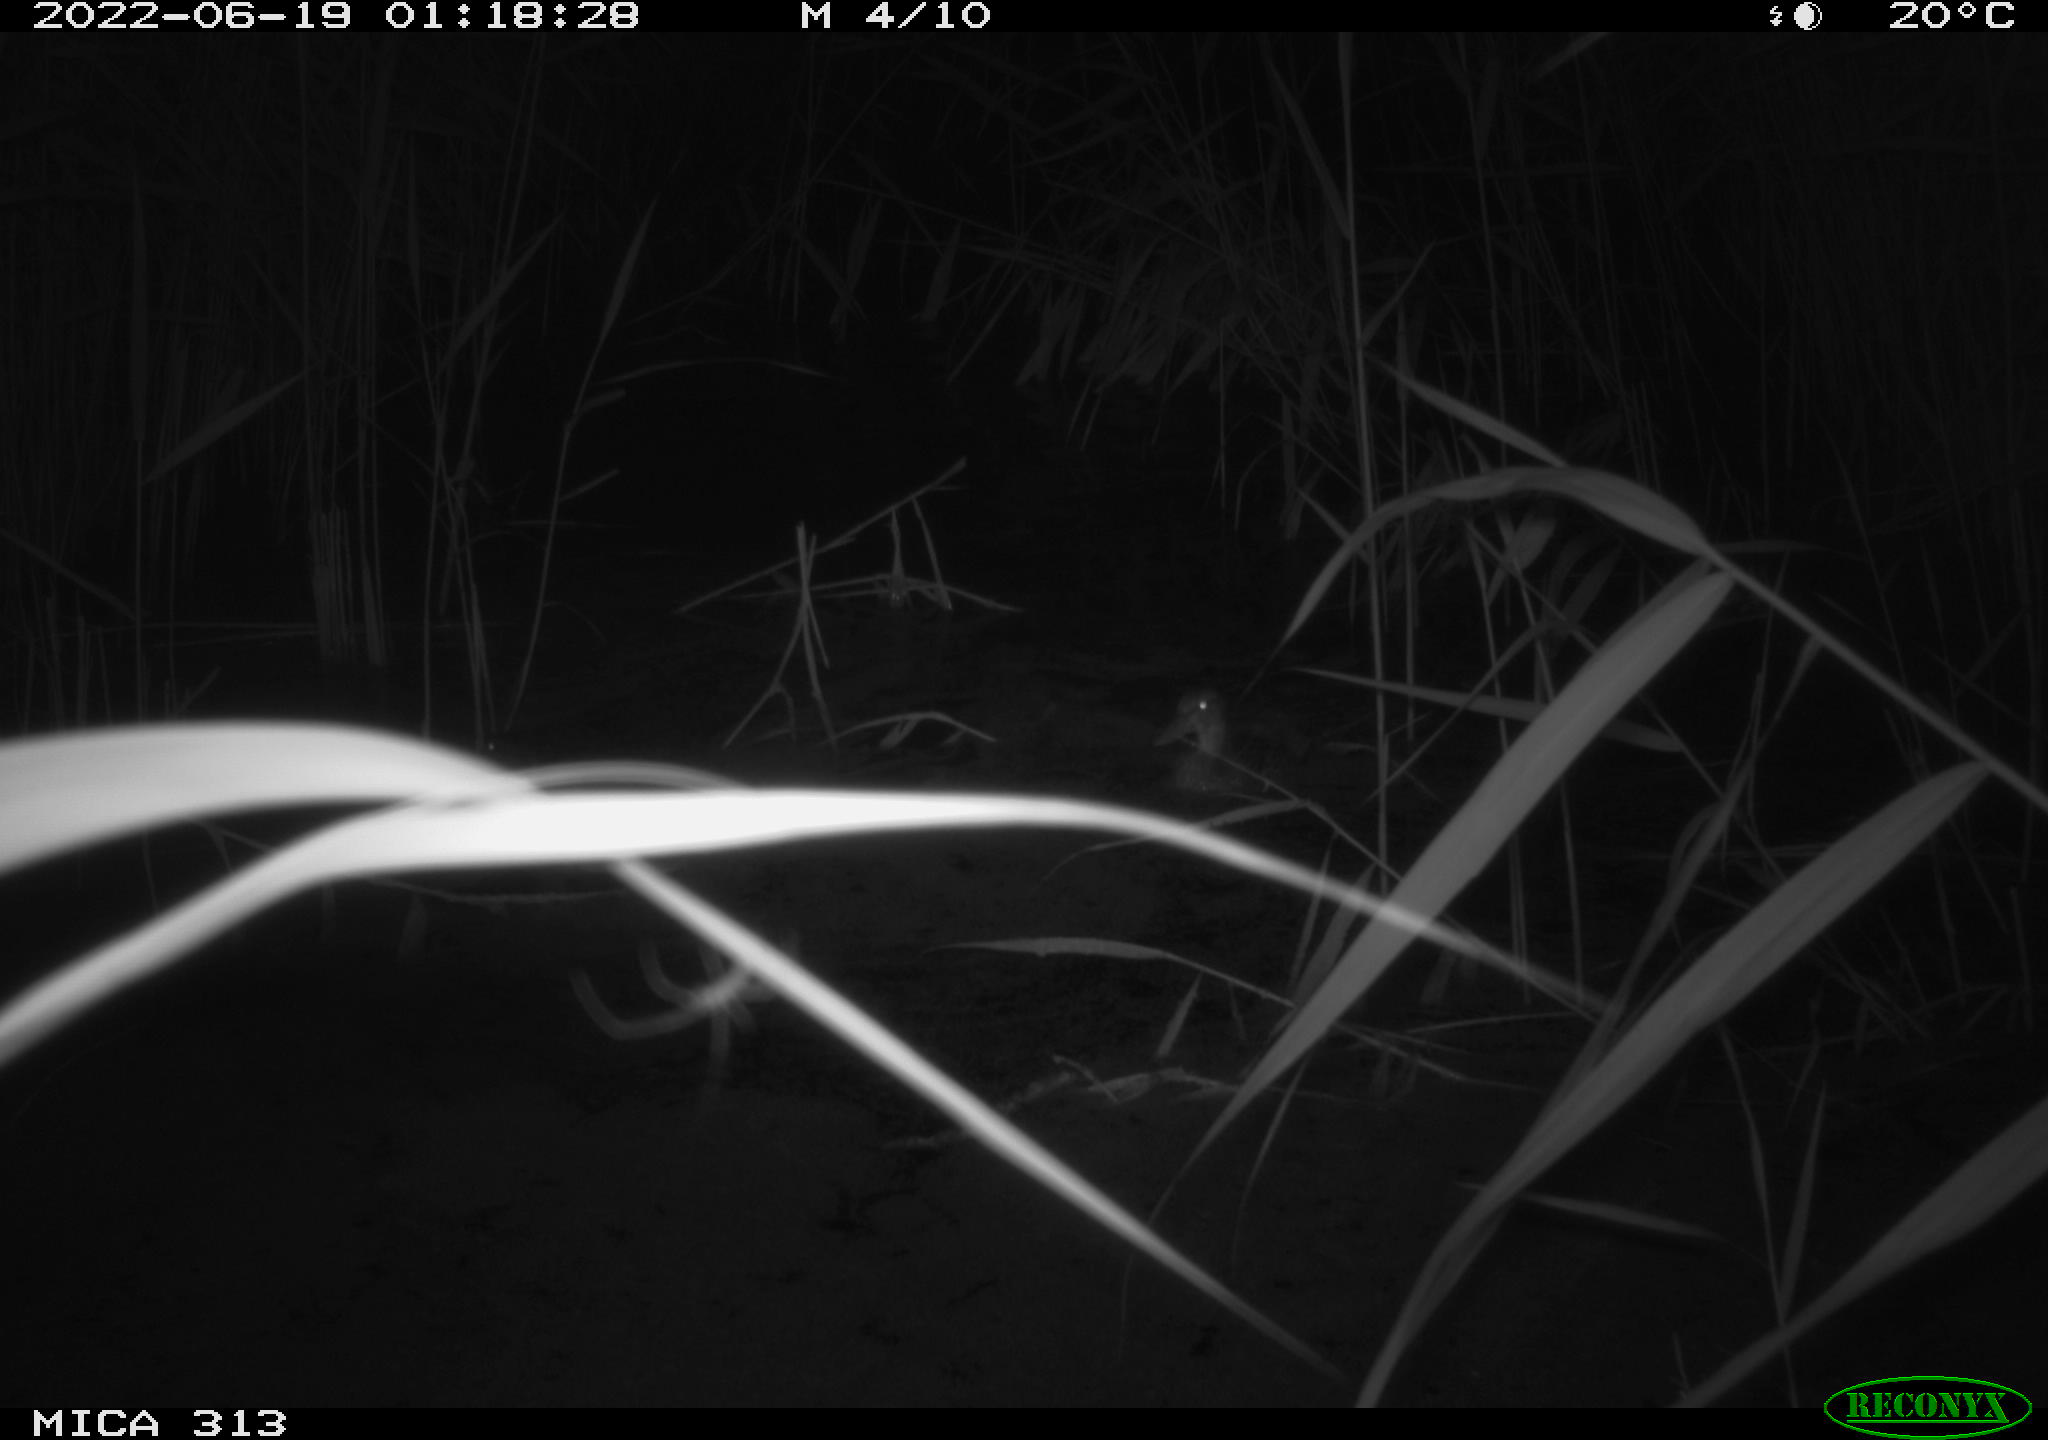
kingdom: Animalia
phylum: Chordata
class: Aves
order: Anseriformes
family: Anatidae
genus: Anas
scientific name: Anas platyrhynchos
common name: Mallard
